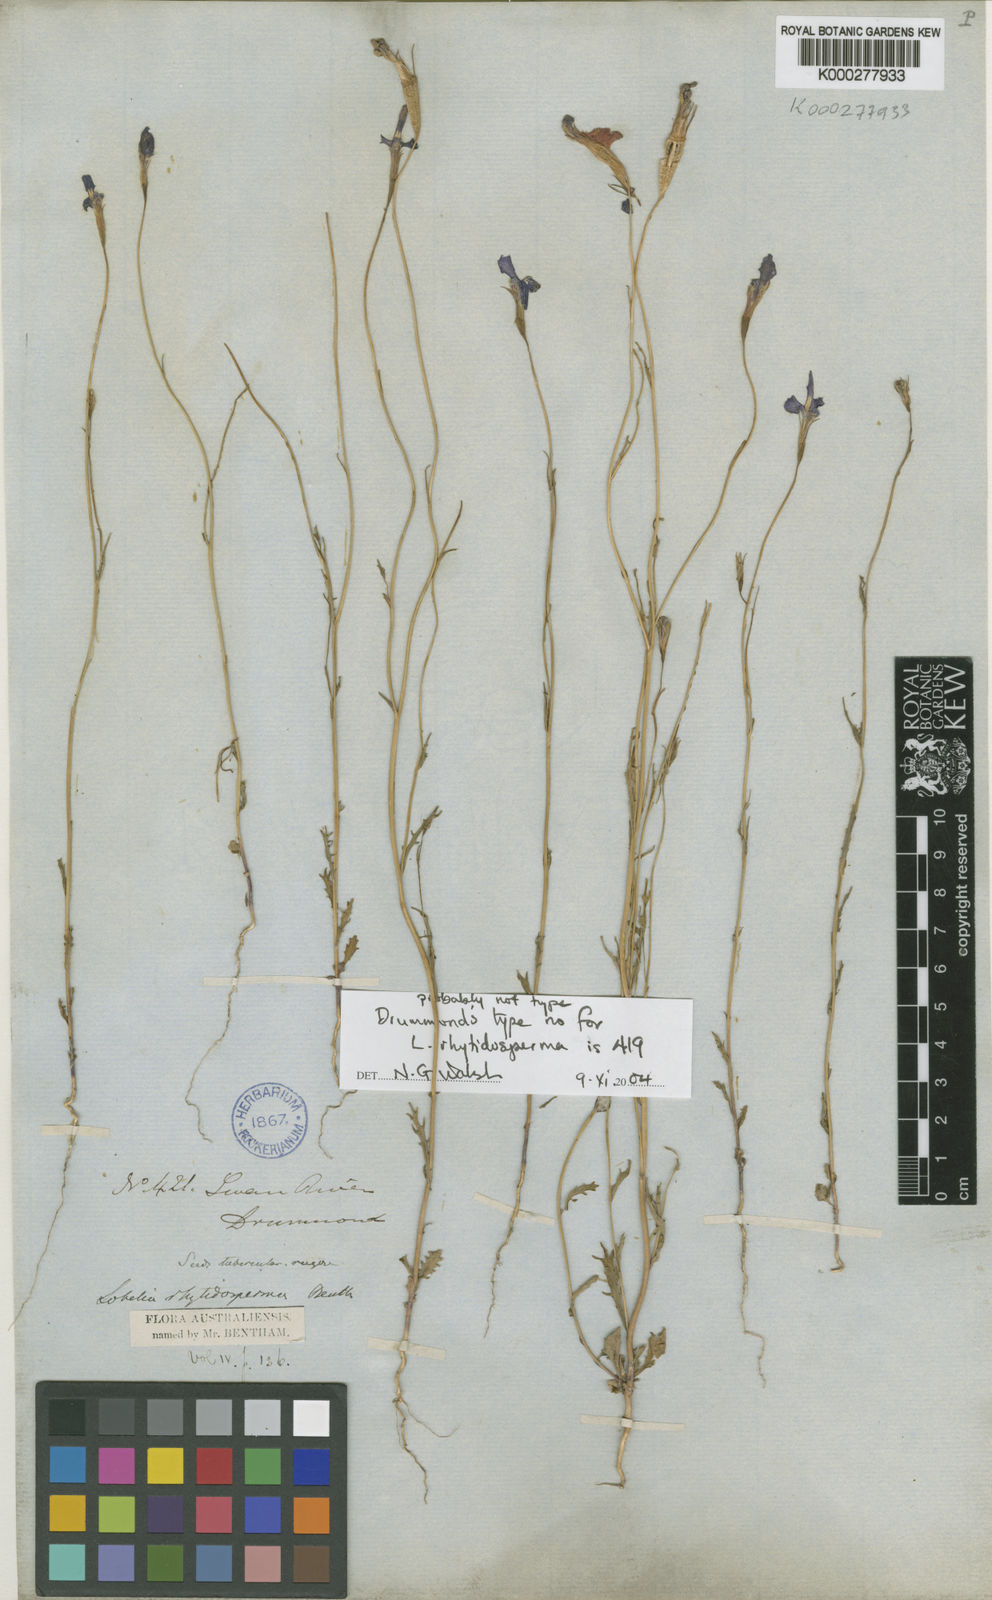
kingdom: Plantae
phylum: Tracheophyta
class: Magnoliopsida
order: Asterales
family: Campanulaceae
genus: Lobelia
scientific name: Lobelia rhytidosperma
